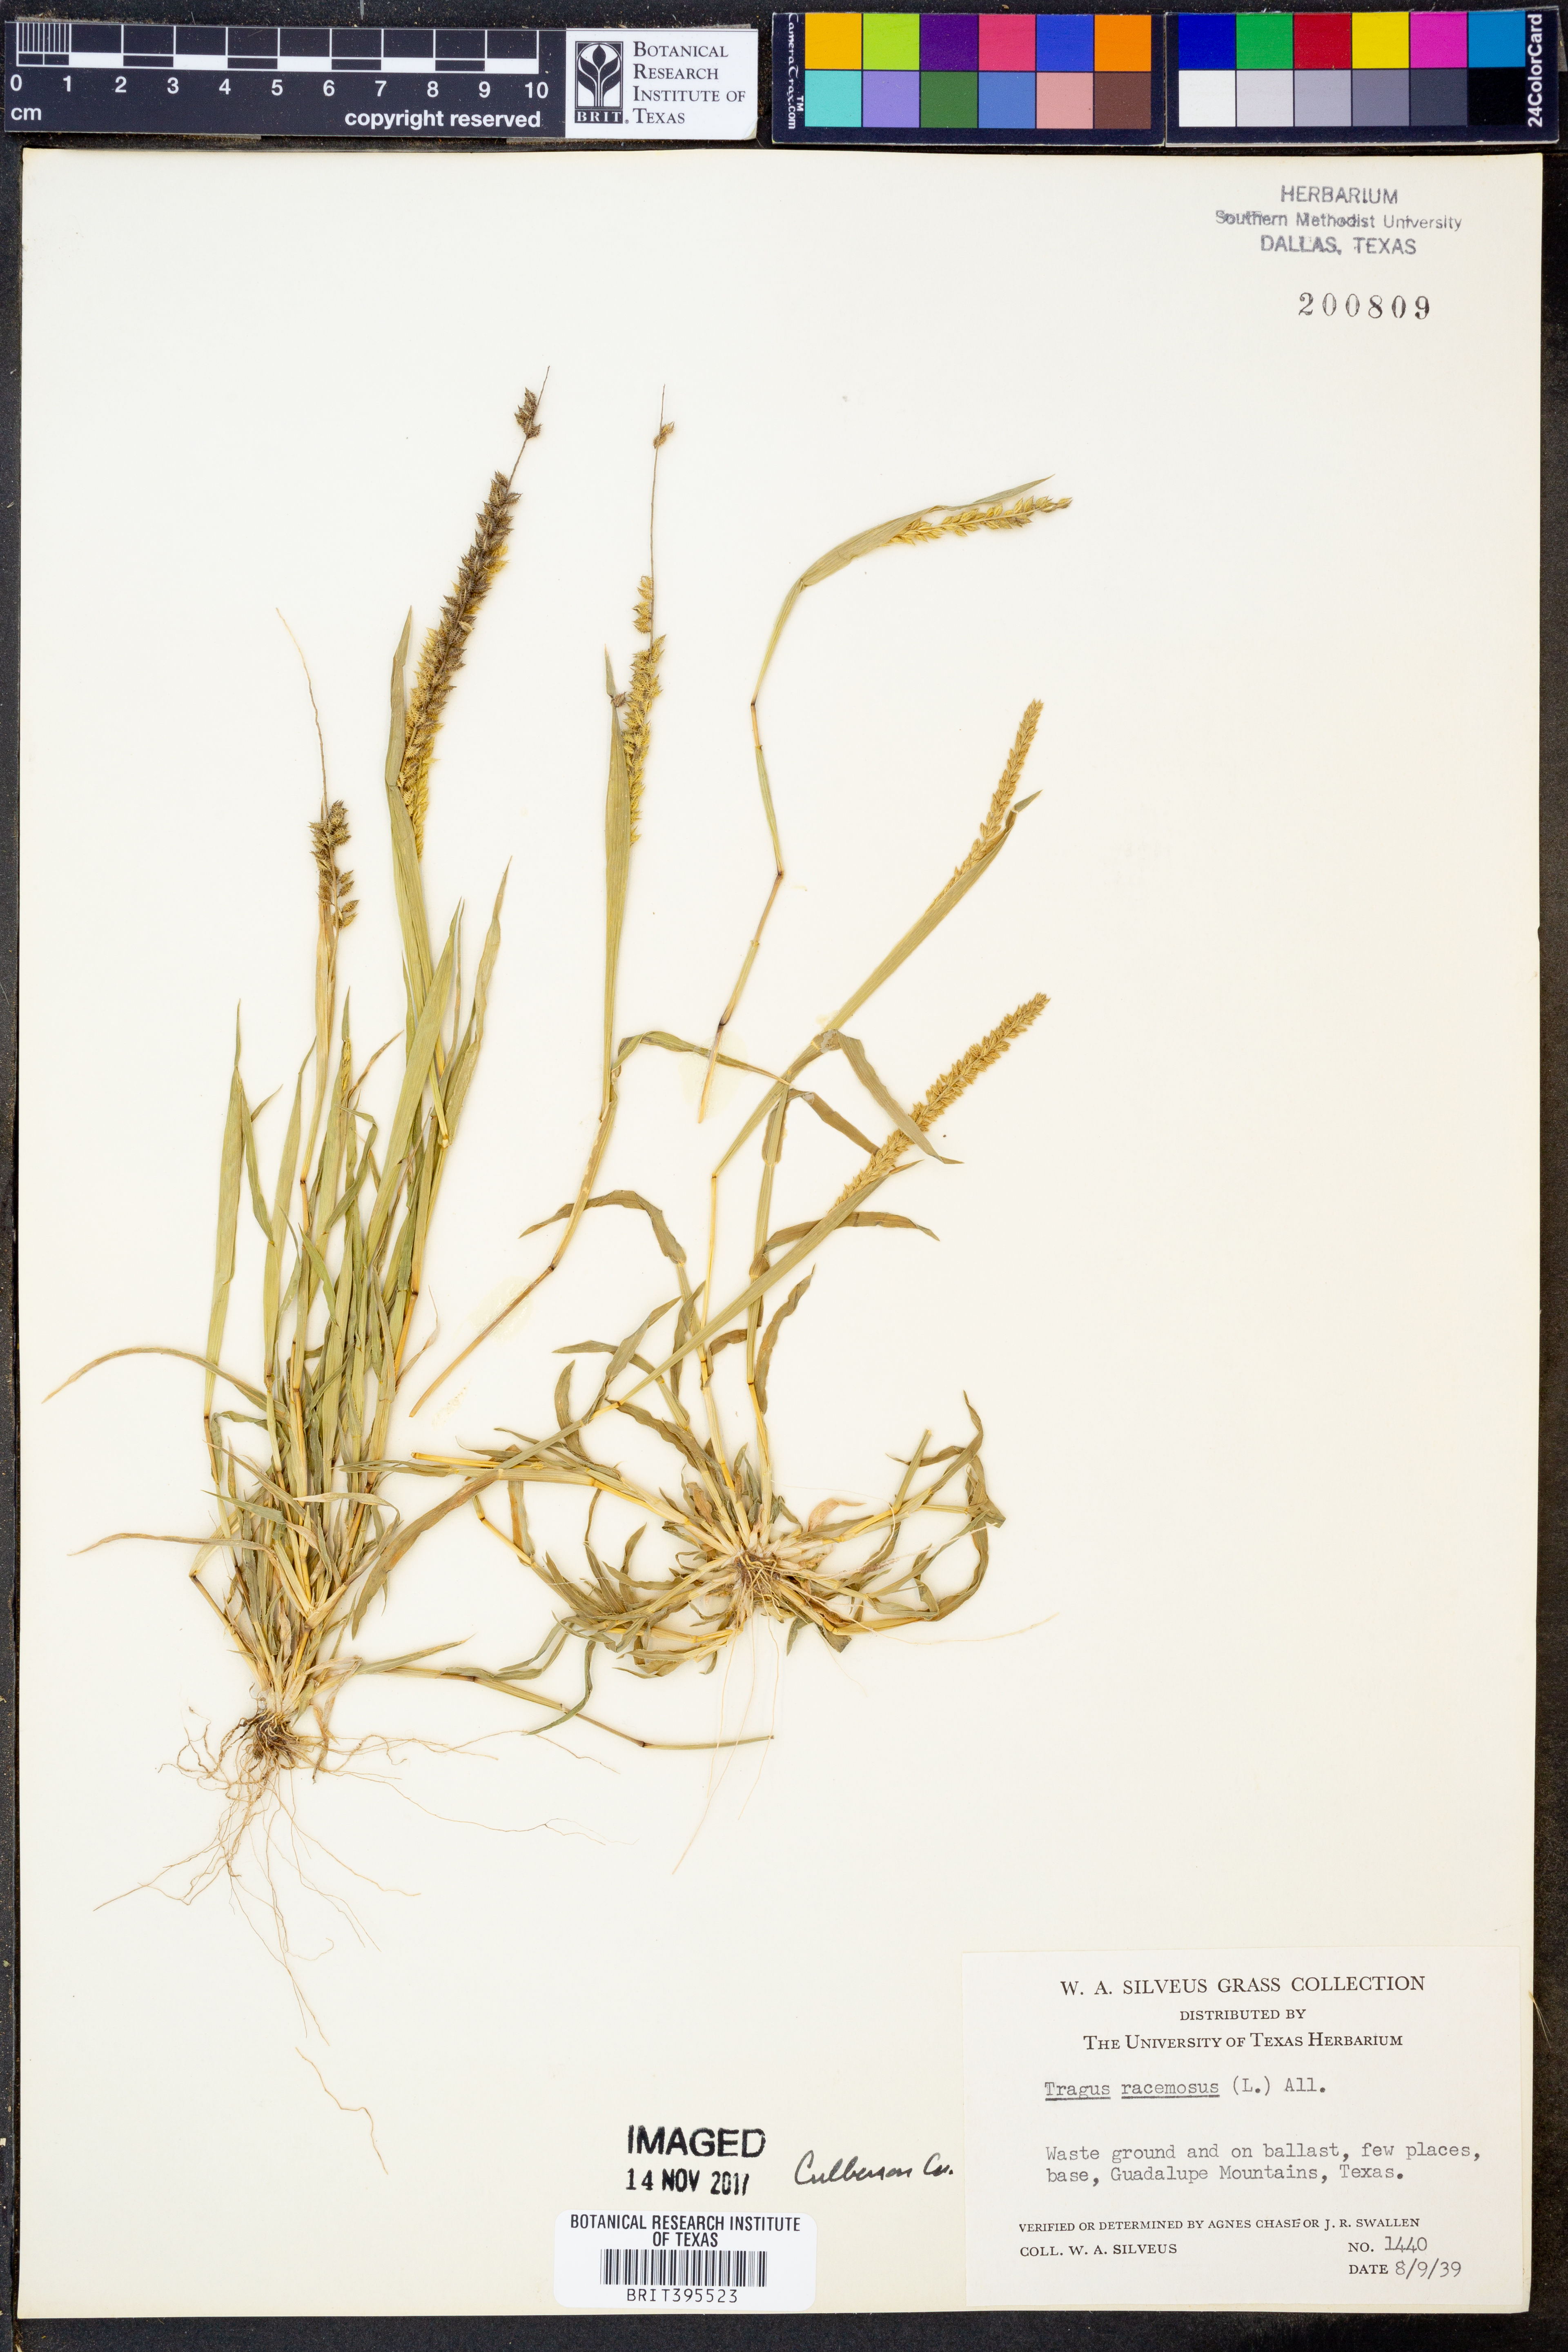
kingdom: Plantae
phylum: Tracheophyta
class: Liliopsida
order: Poales
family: Poaceae
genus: Tragus
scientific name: Tragus racemosus
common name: European bur-grass
